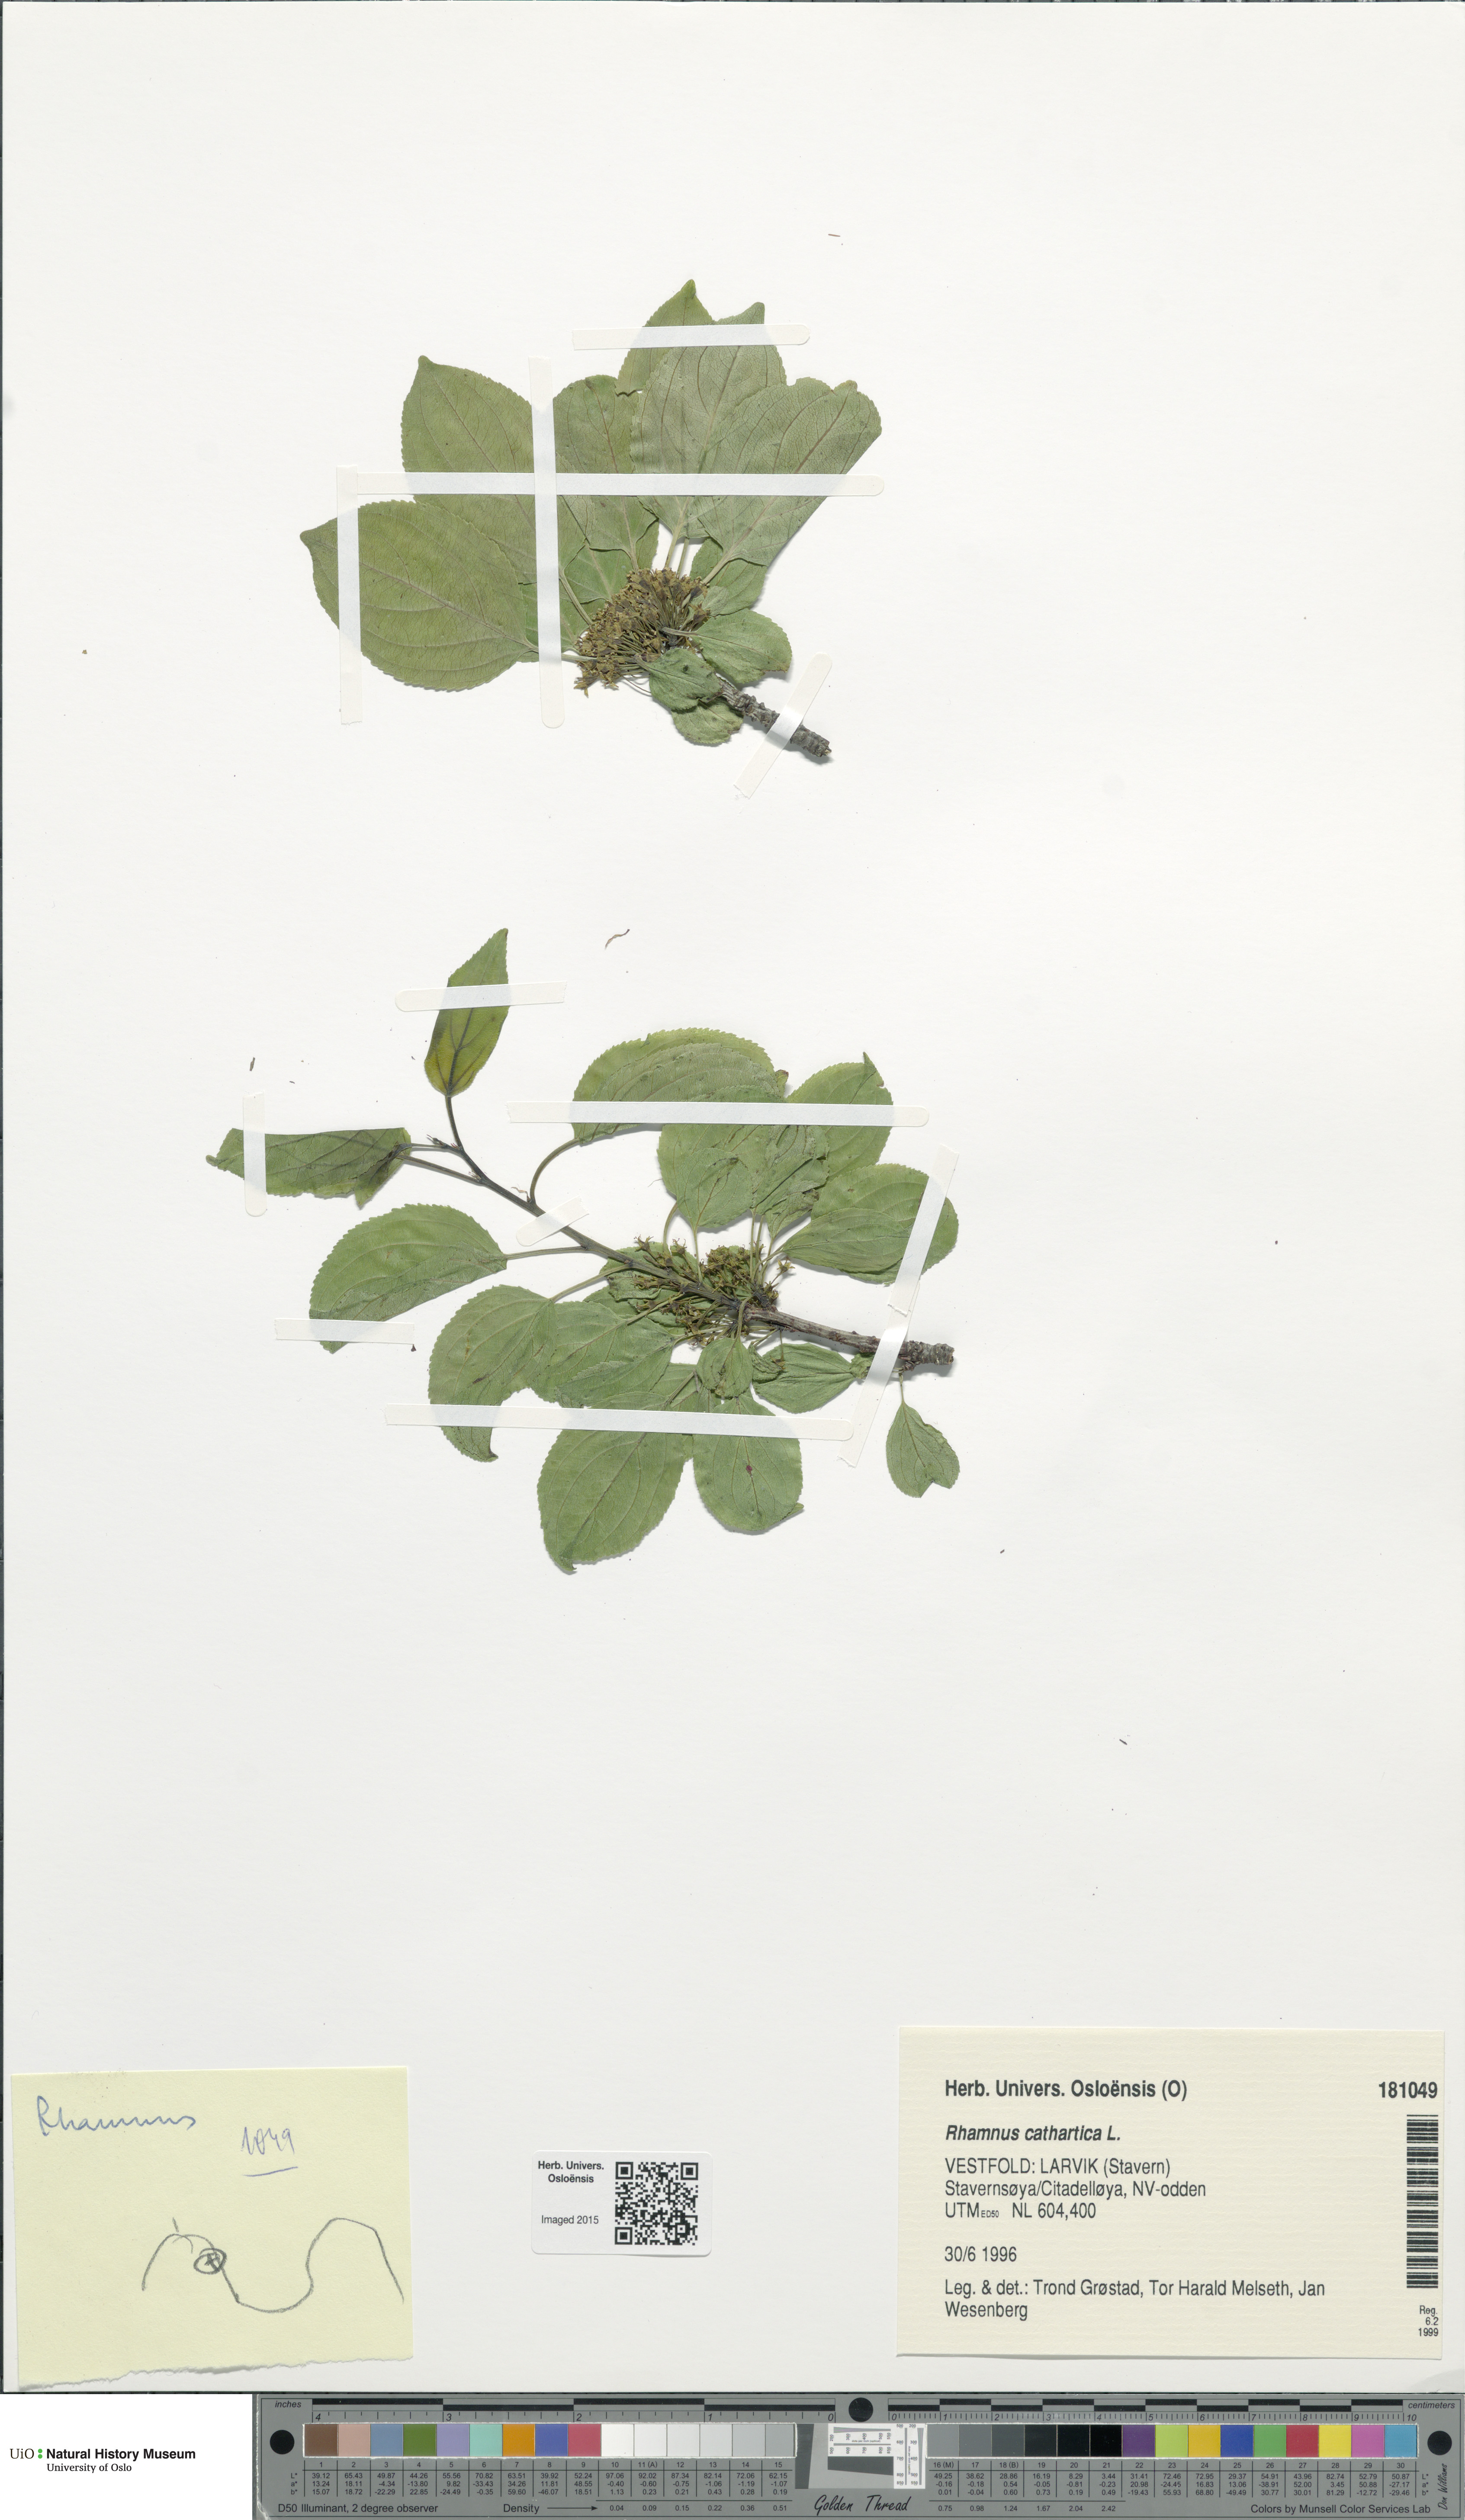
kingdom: Plantae
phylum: Tracheophyta
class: Magnoliopsida
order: Rosales
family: Rhamnaceae
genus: Rhamnus
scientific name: Rhamnus cathartica
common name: Common buckthorn
